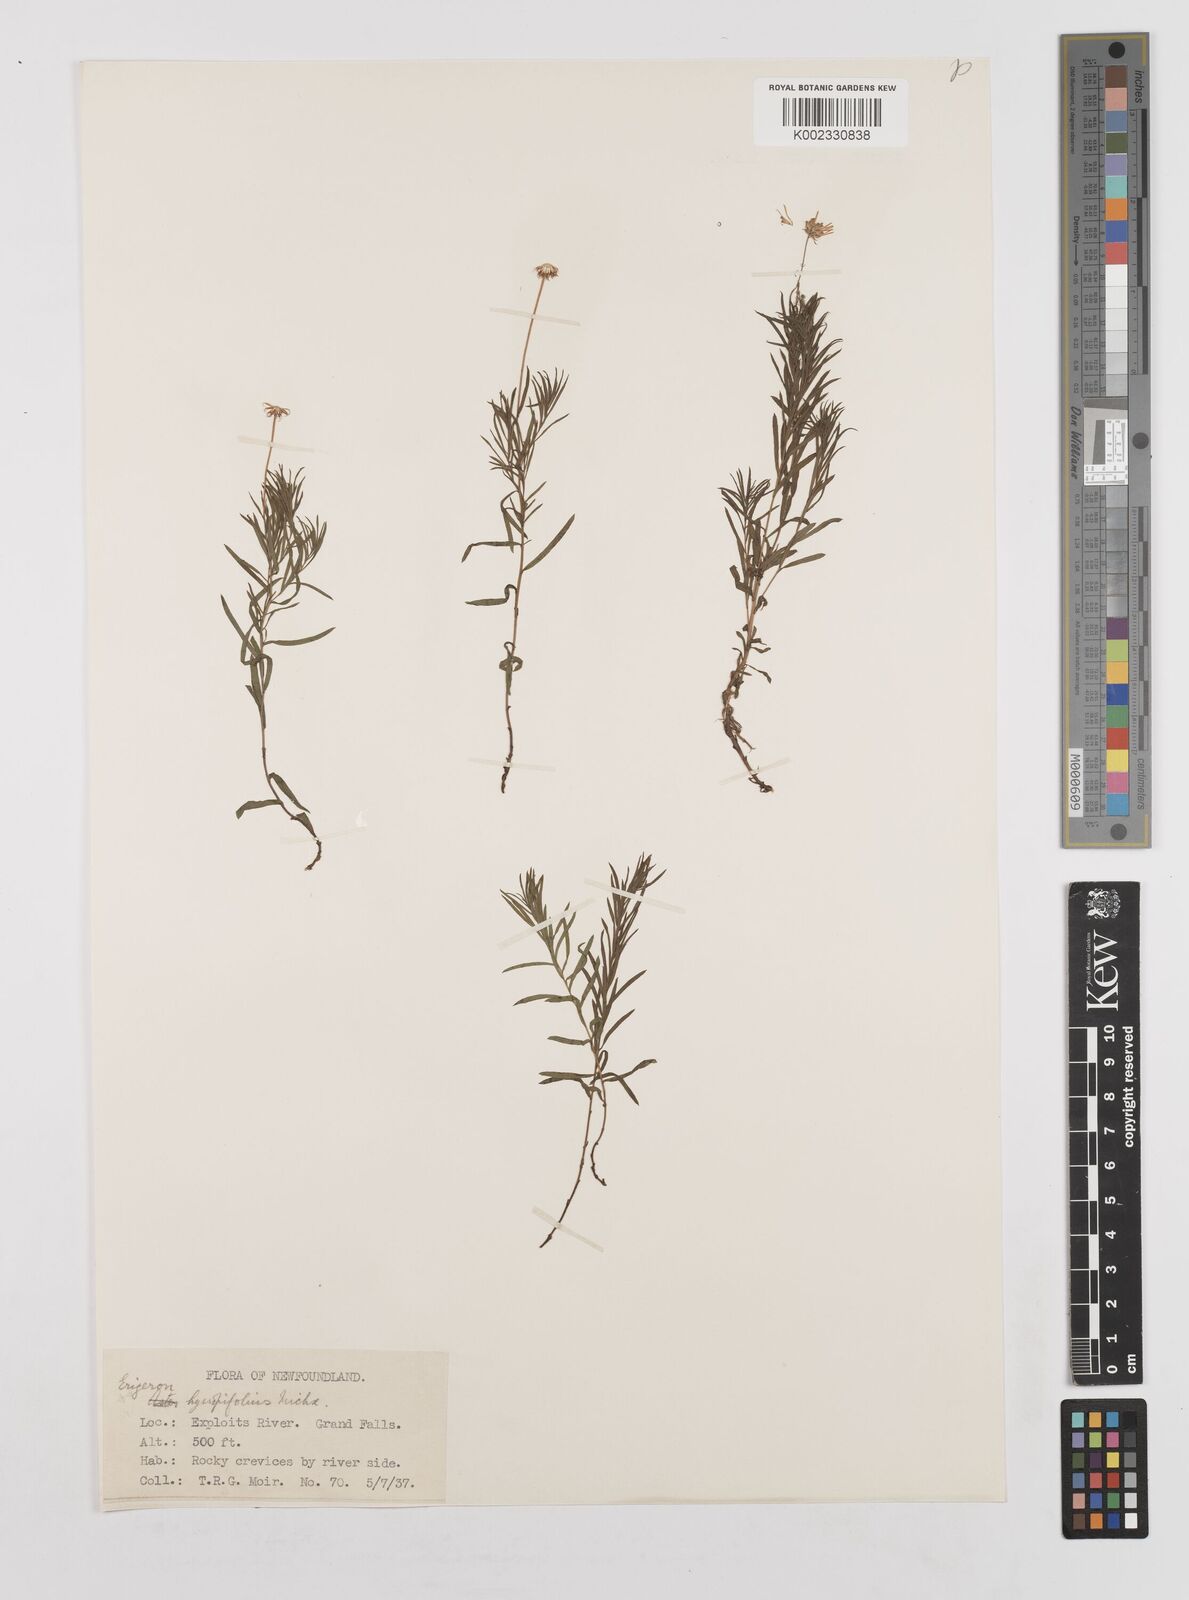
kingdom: Plantae
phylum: Tracheophyta
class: Magnoliopsida
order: Asterales
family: Asteraceae
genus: Erigeron
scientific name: Erigeron hyssopifolius
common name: Daisy fleabane
